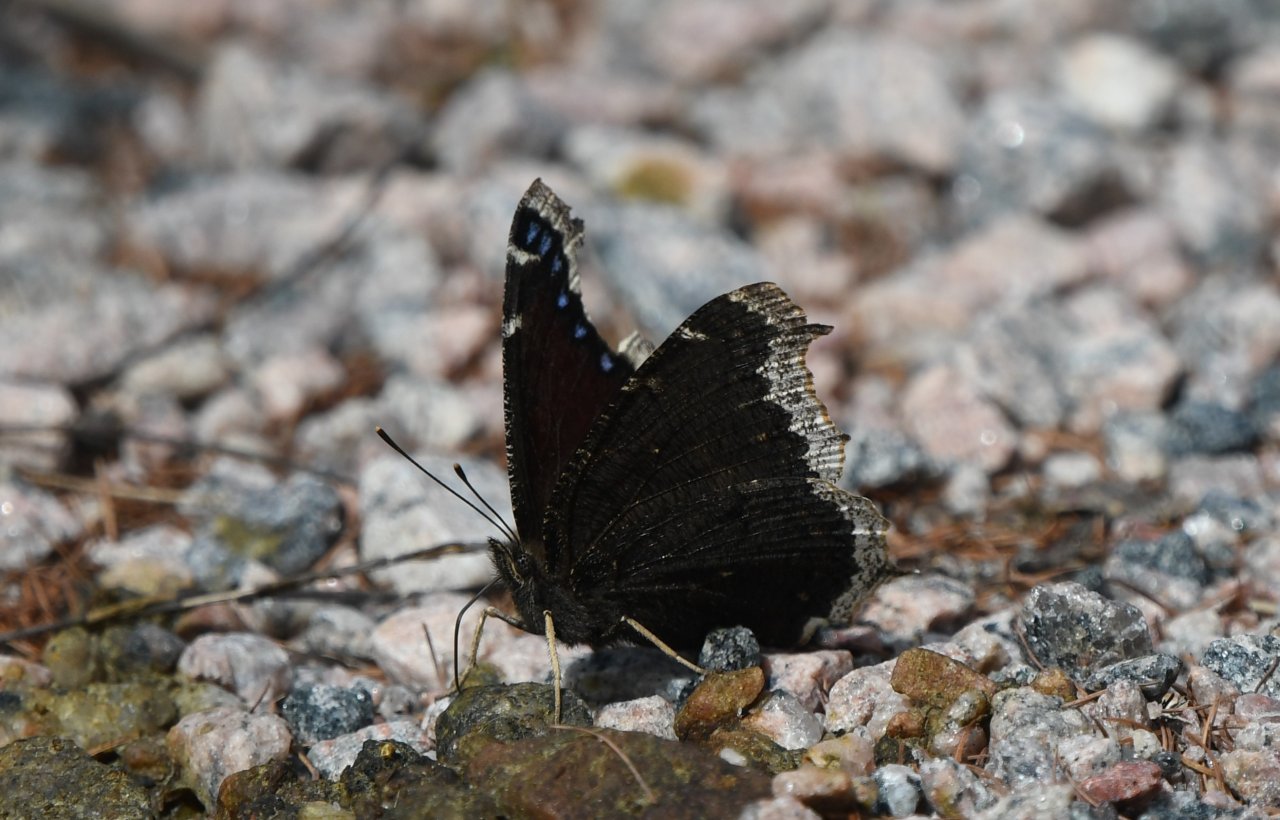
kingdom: Animalia
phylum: Arthropoda
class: Insecta
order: Lepidoptera
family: Nymphalidae
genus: Nymphalis
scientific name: Nymphalis antiopa
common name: Mourning Cloak
